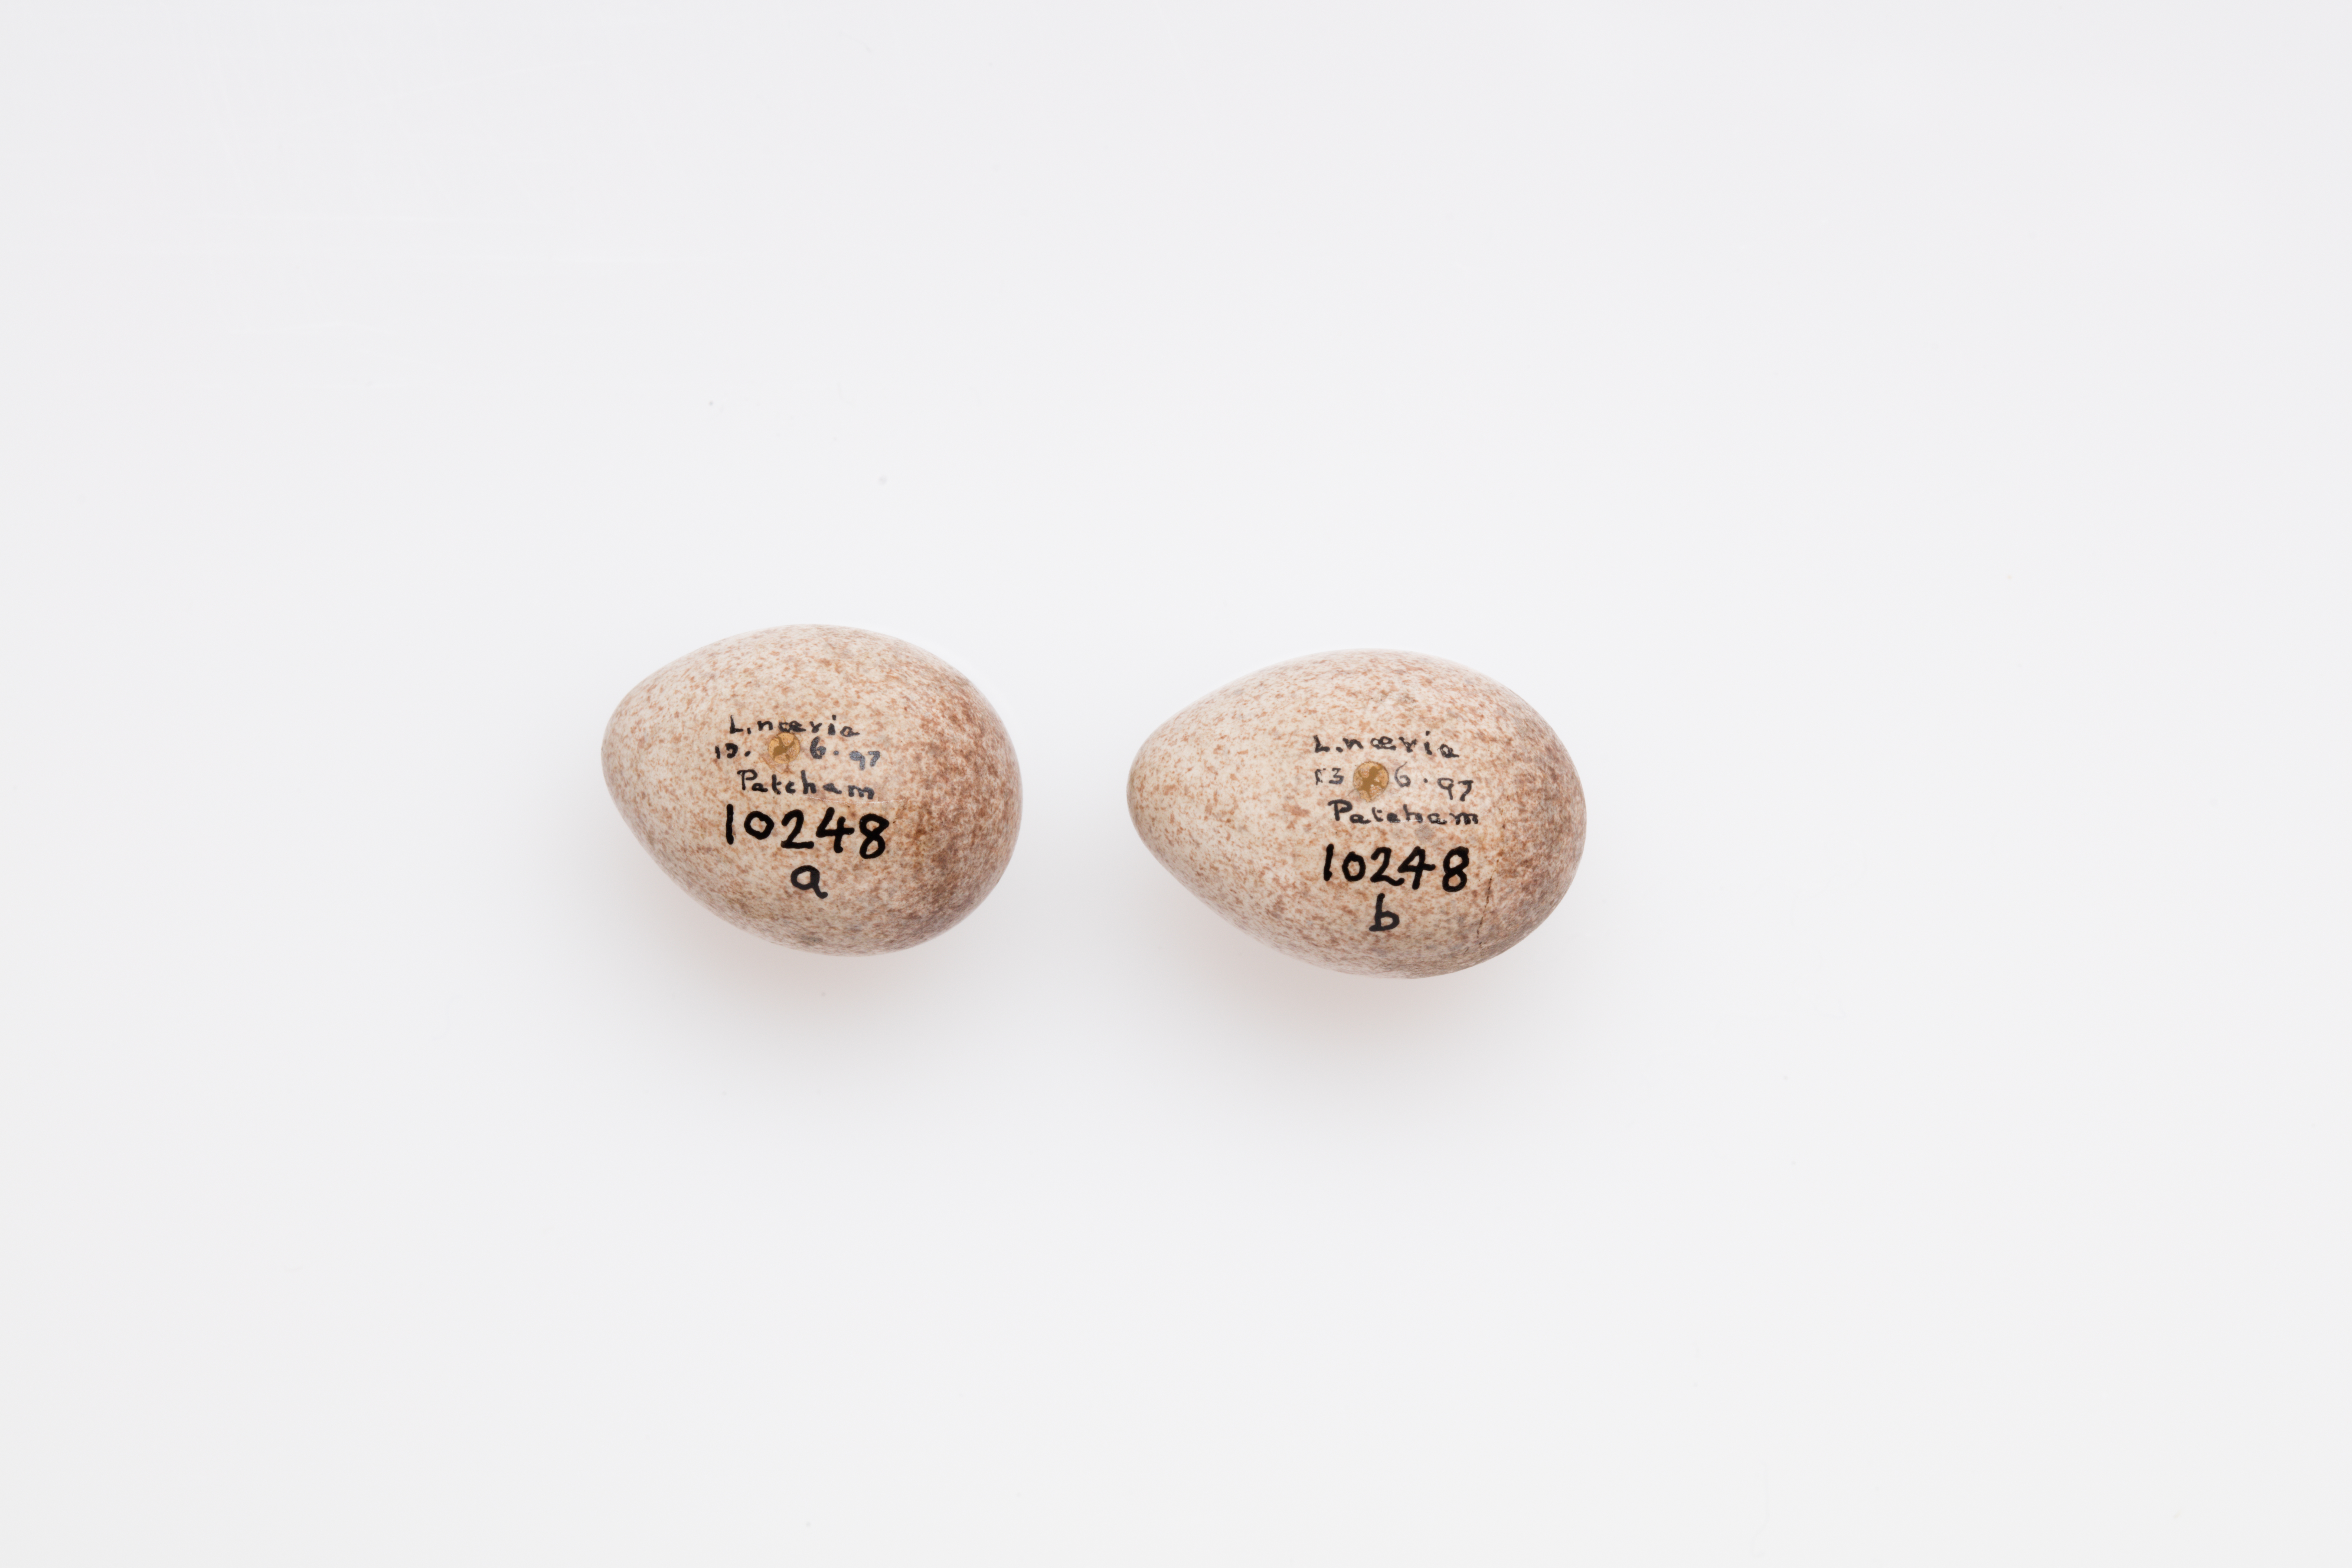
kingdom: Animalia
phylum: Chordata
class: Aves
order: Passeriformes
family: Locustellidae
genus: Locustella
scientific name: Locustella naevia
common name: Common grasshopper warbler
